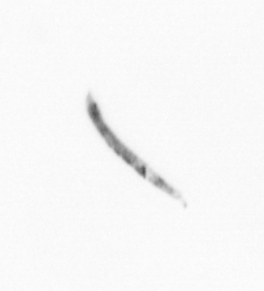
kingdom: Chromista
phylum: Ochrophyta
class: Bacillariophyceae
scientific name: Bacillariophyceae
